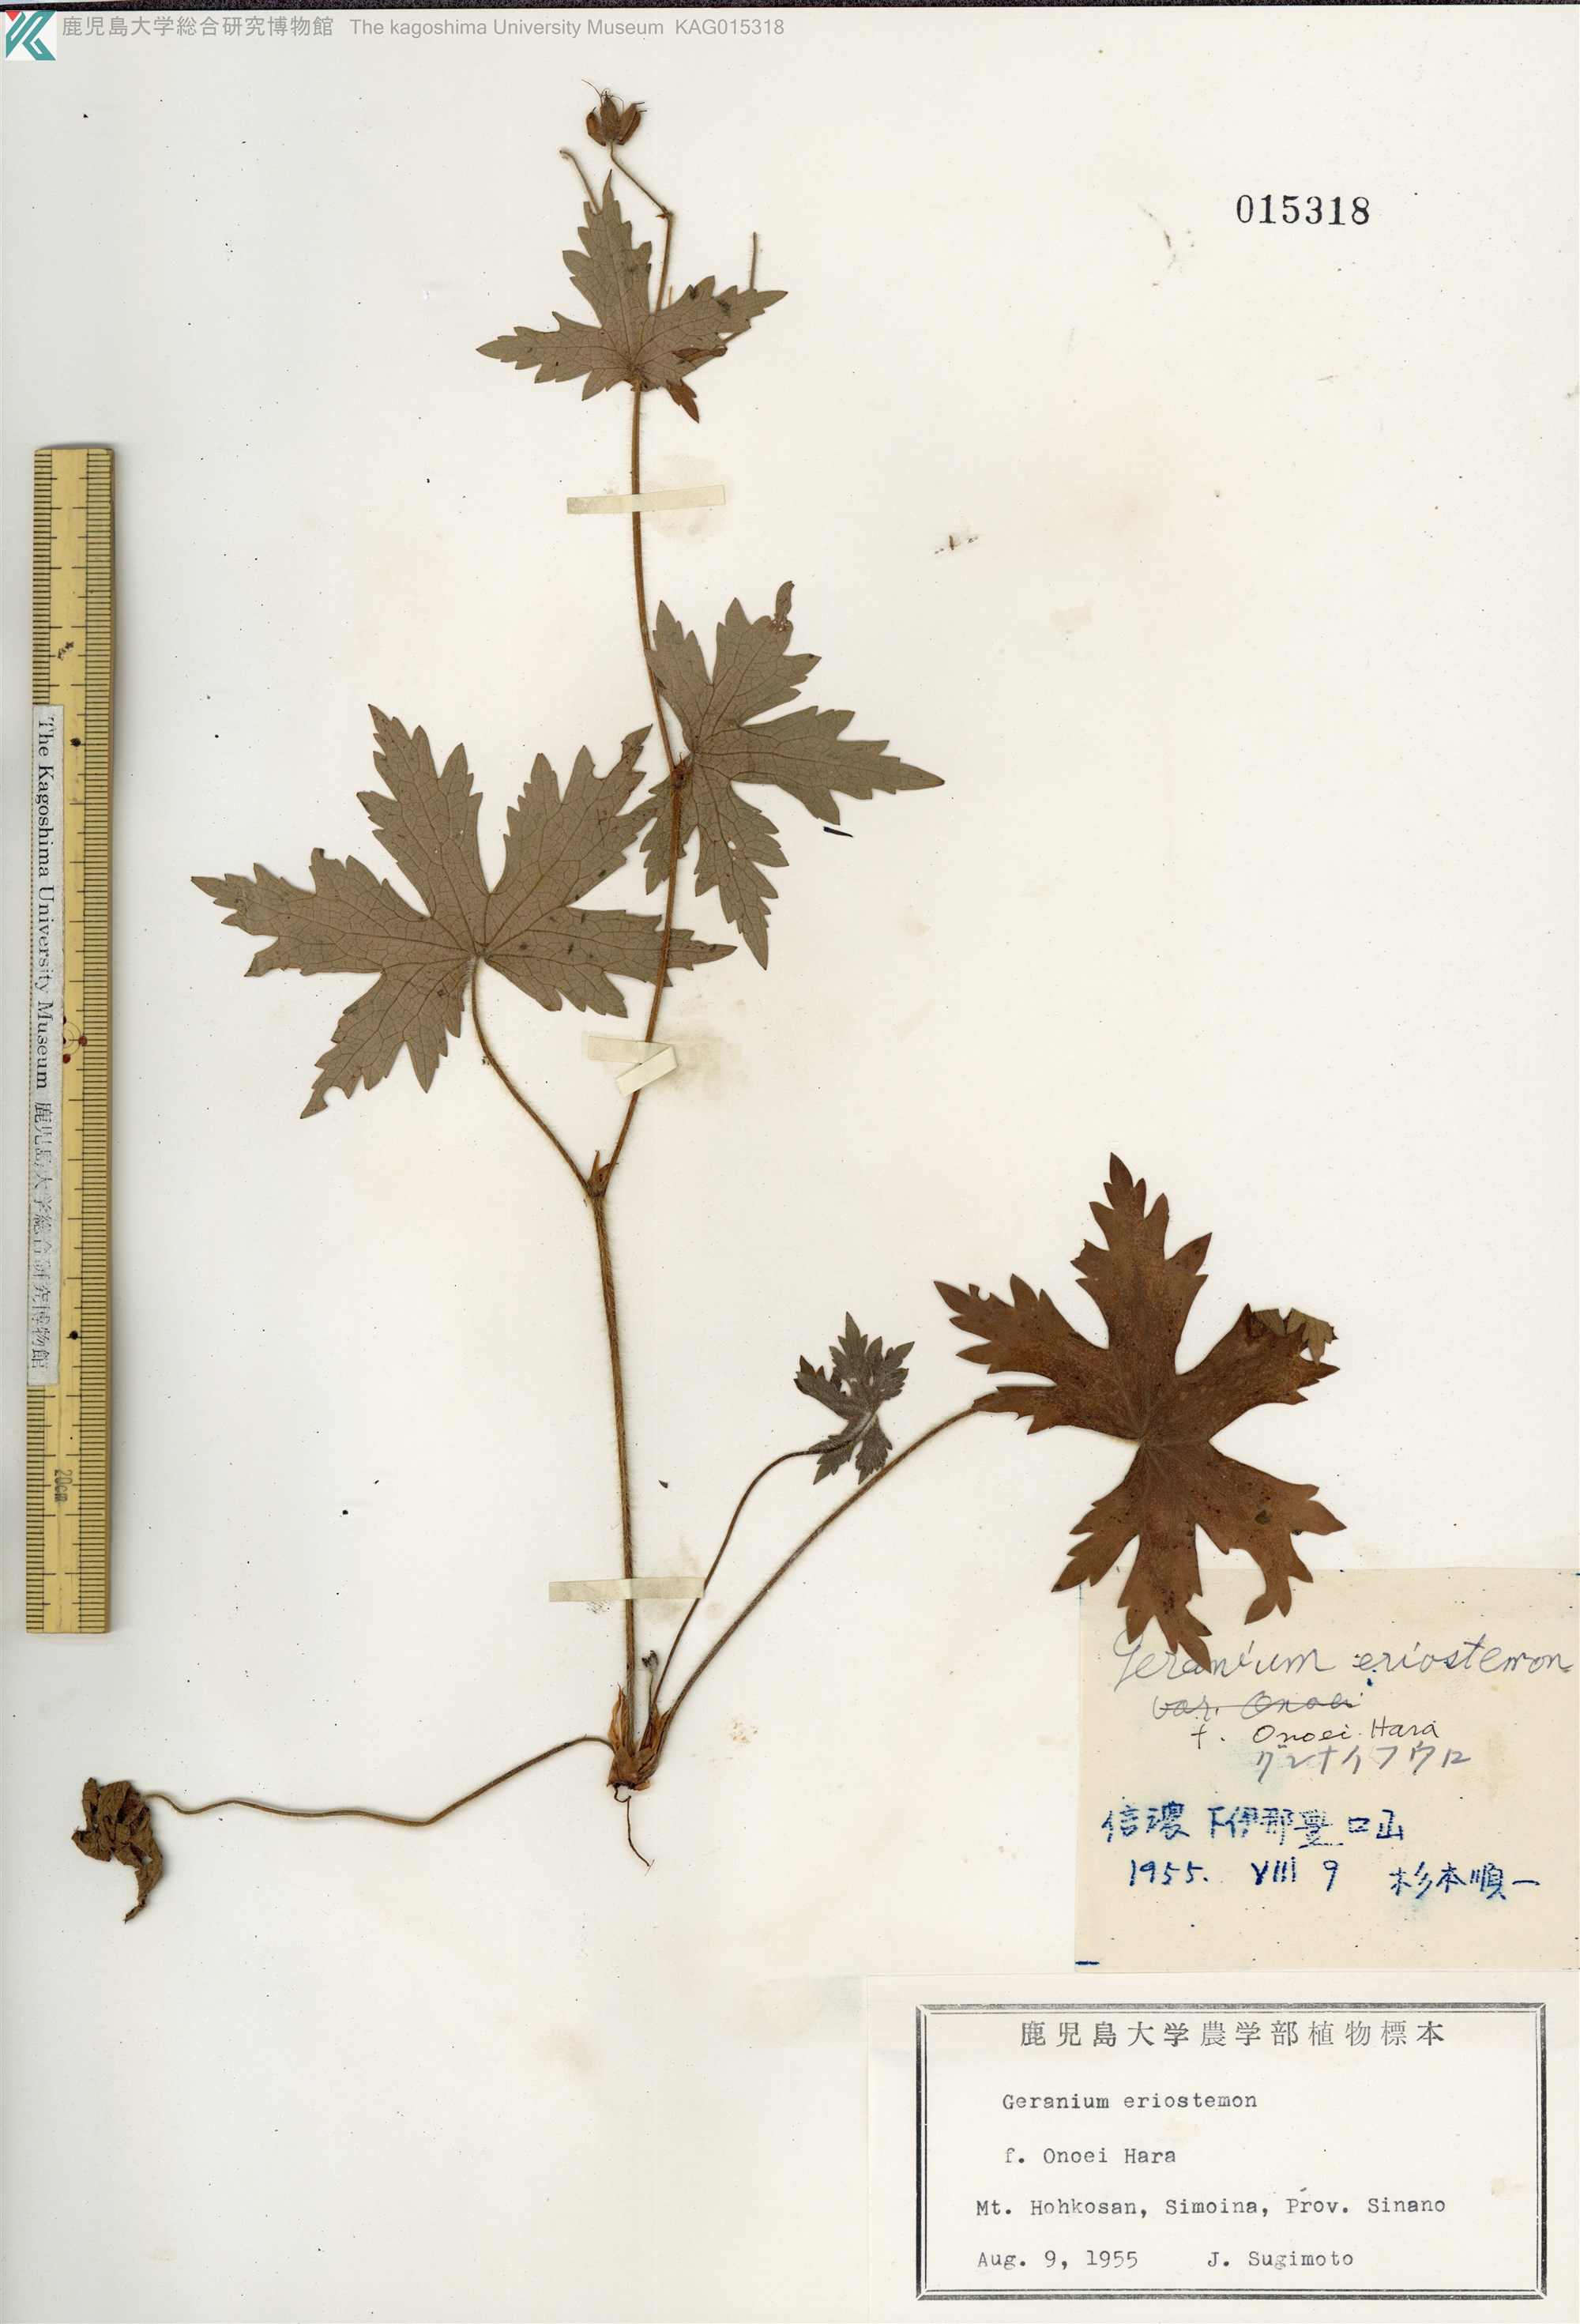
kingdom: Plantae
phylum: Tracheophyta
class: Magnoliopsida
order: Geraniales
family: Geraniaceae
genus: Geranium
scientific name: Geranium erianthum
